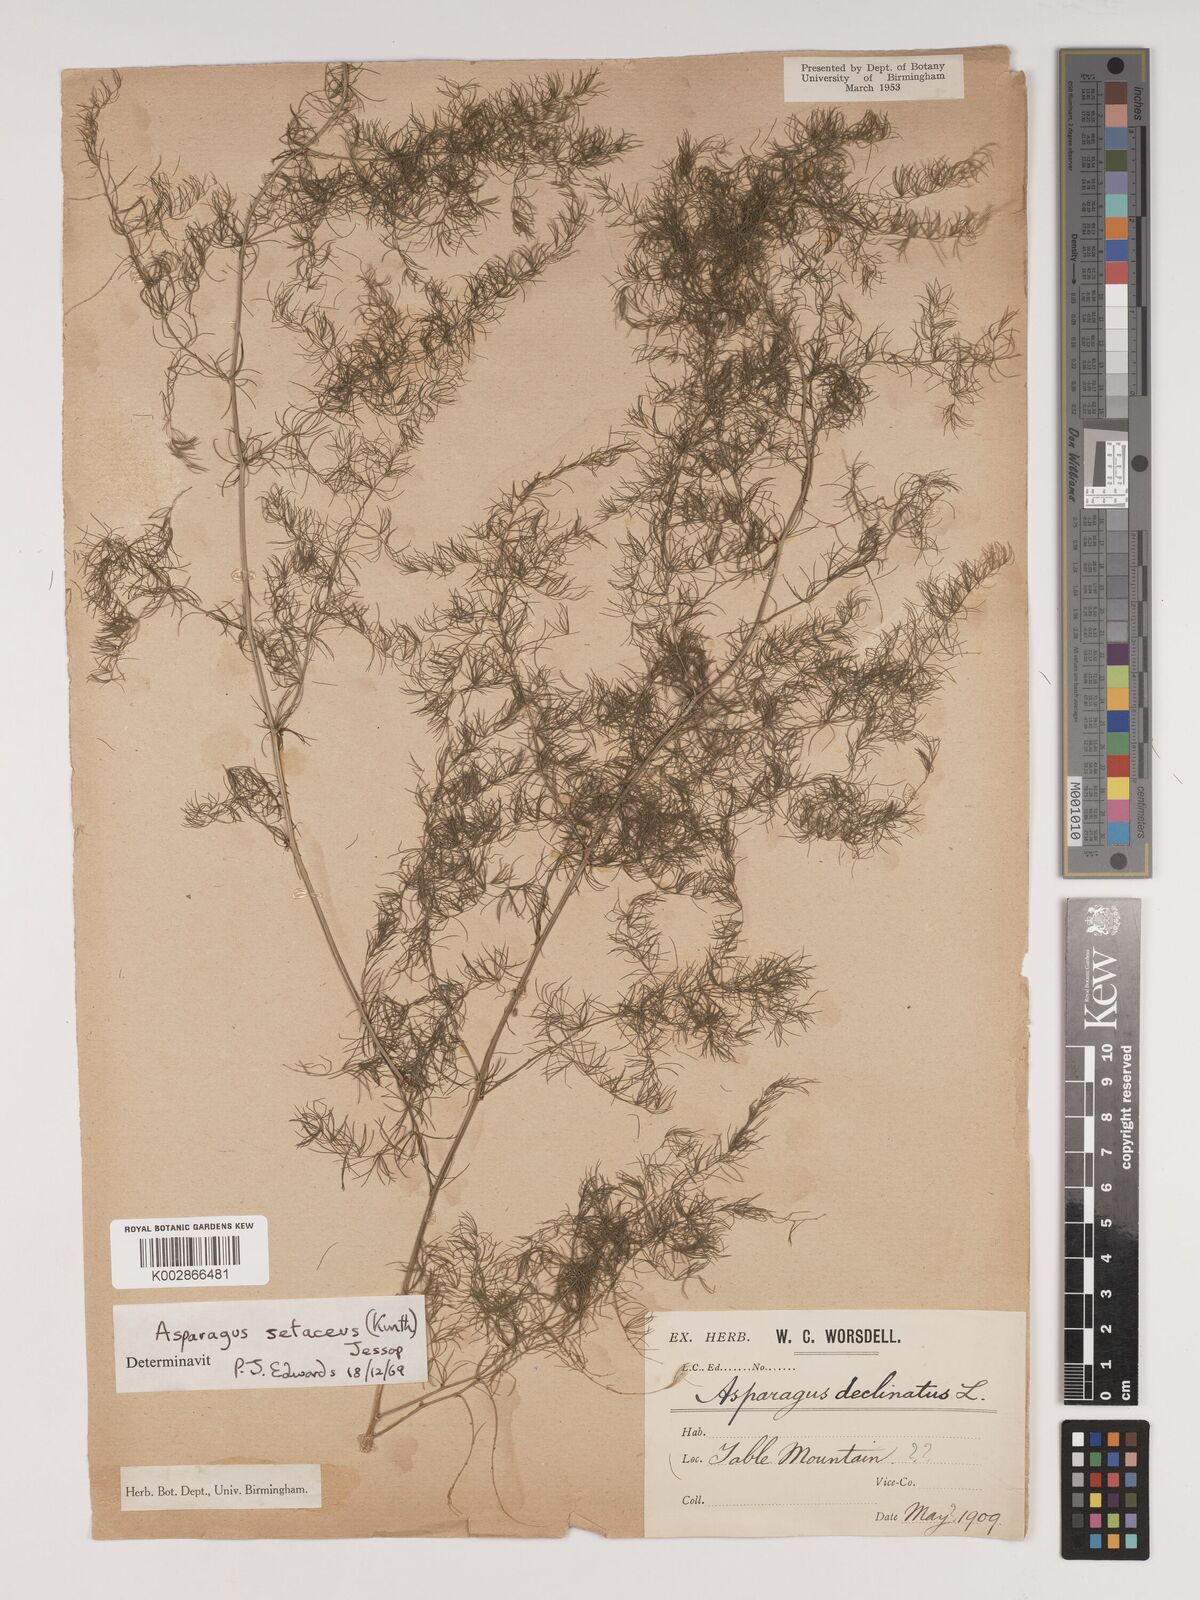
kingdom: Plantae
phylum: Tracheophyta
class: Liliopsida
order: Asparagales
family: Asparagaceae
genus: Asparagus
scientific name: Asparagus setaceus
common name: Common asparagus fern
